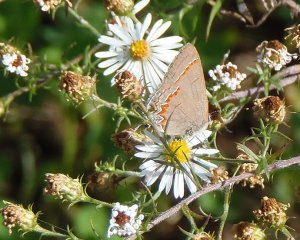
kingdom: Animalia
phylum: Arthropoda
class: Insecta
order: Lepidoptera
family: Lycaenidae
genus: Calycopis
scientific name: Calycopis cecrops
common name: Red-banded Hairstreak
